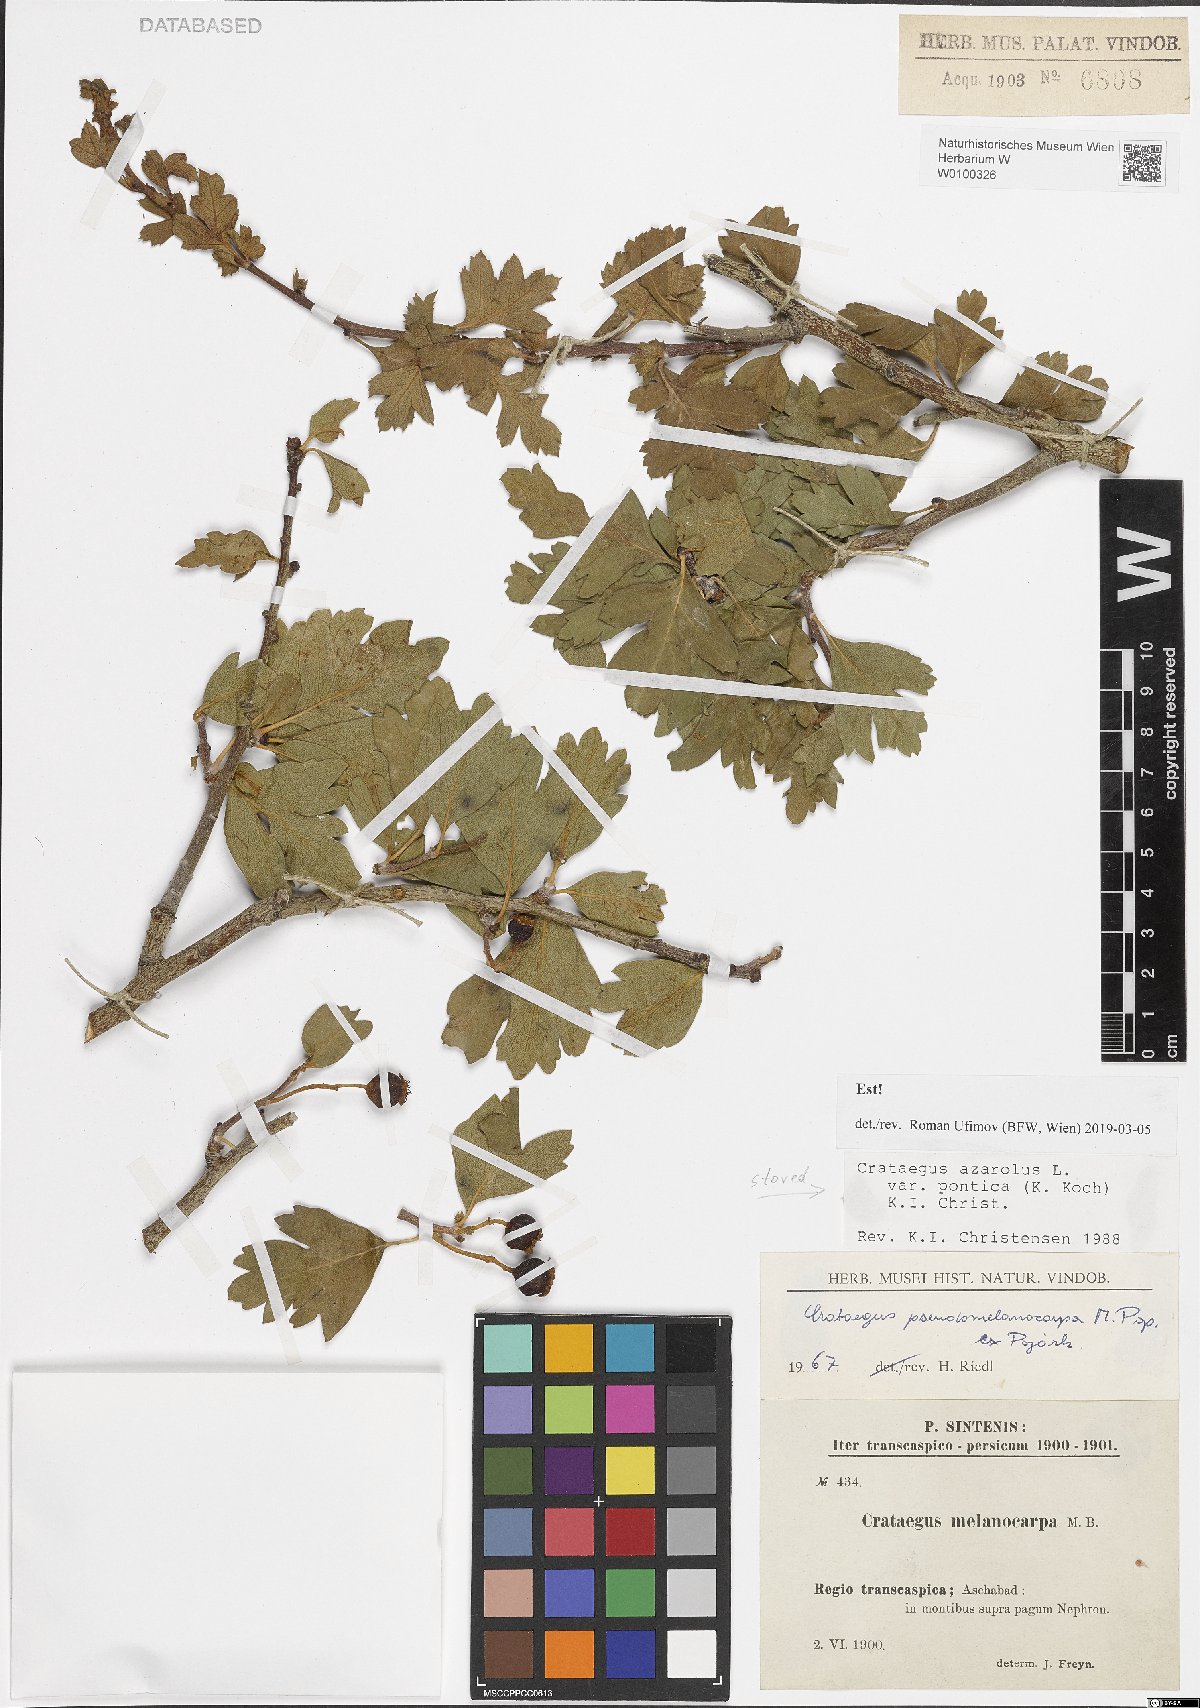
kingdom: Plantae
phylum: Tracheophyta
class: Magnoliopsida
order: Rosales
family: Rosaceae
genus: Crataegus
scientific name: Crataegus azarolus
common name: Azarole
